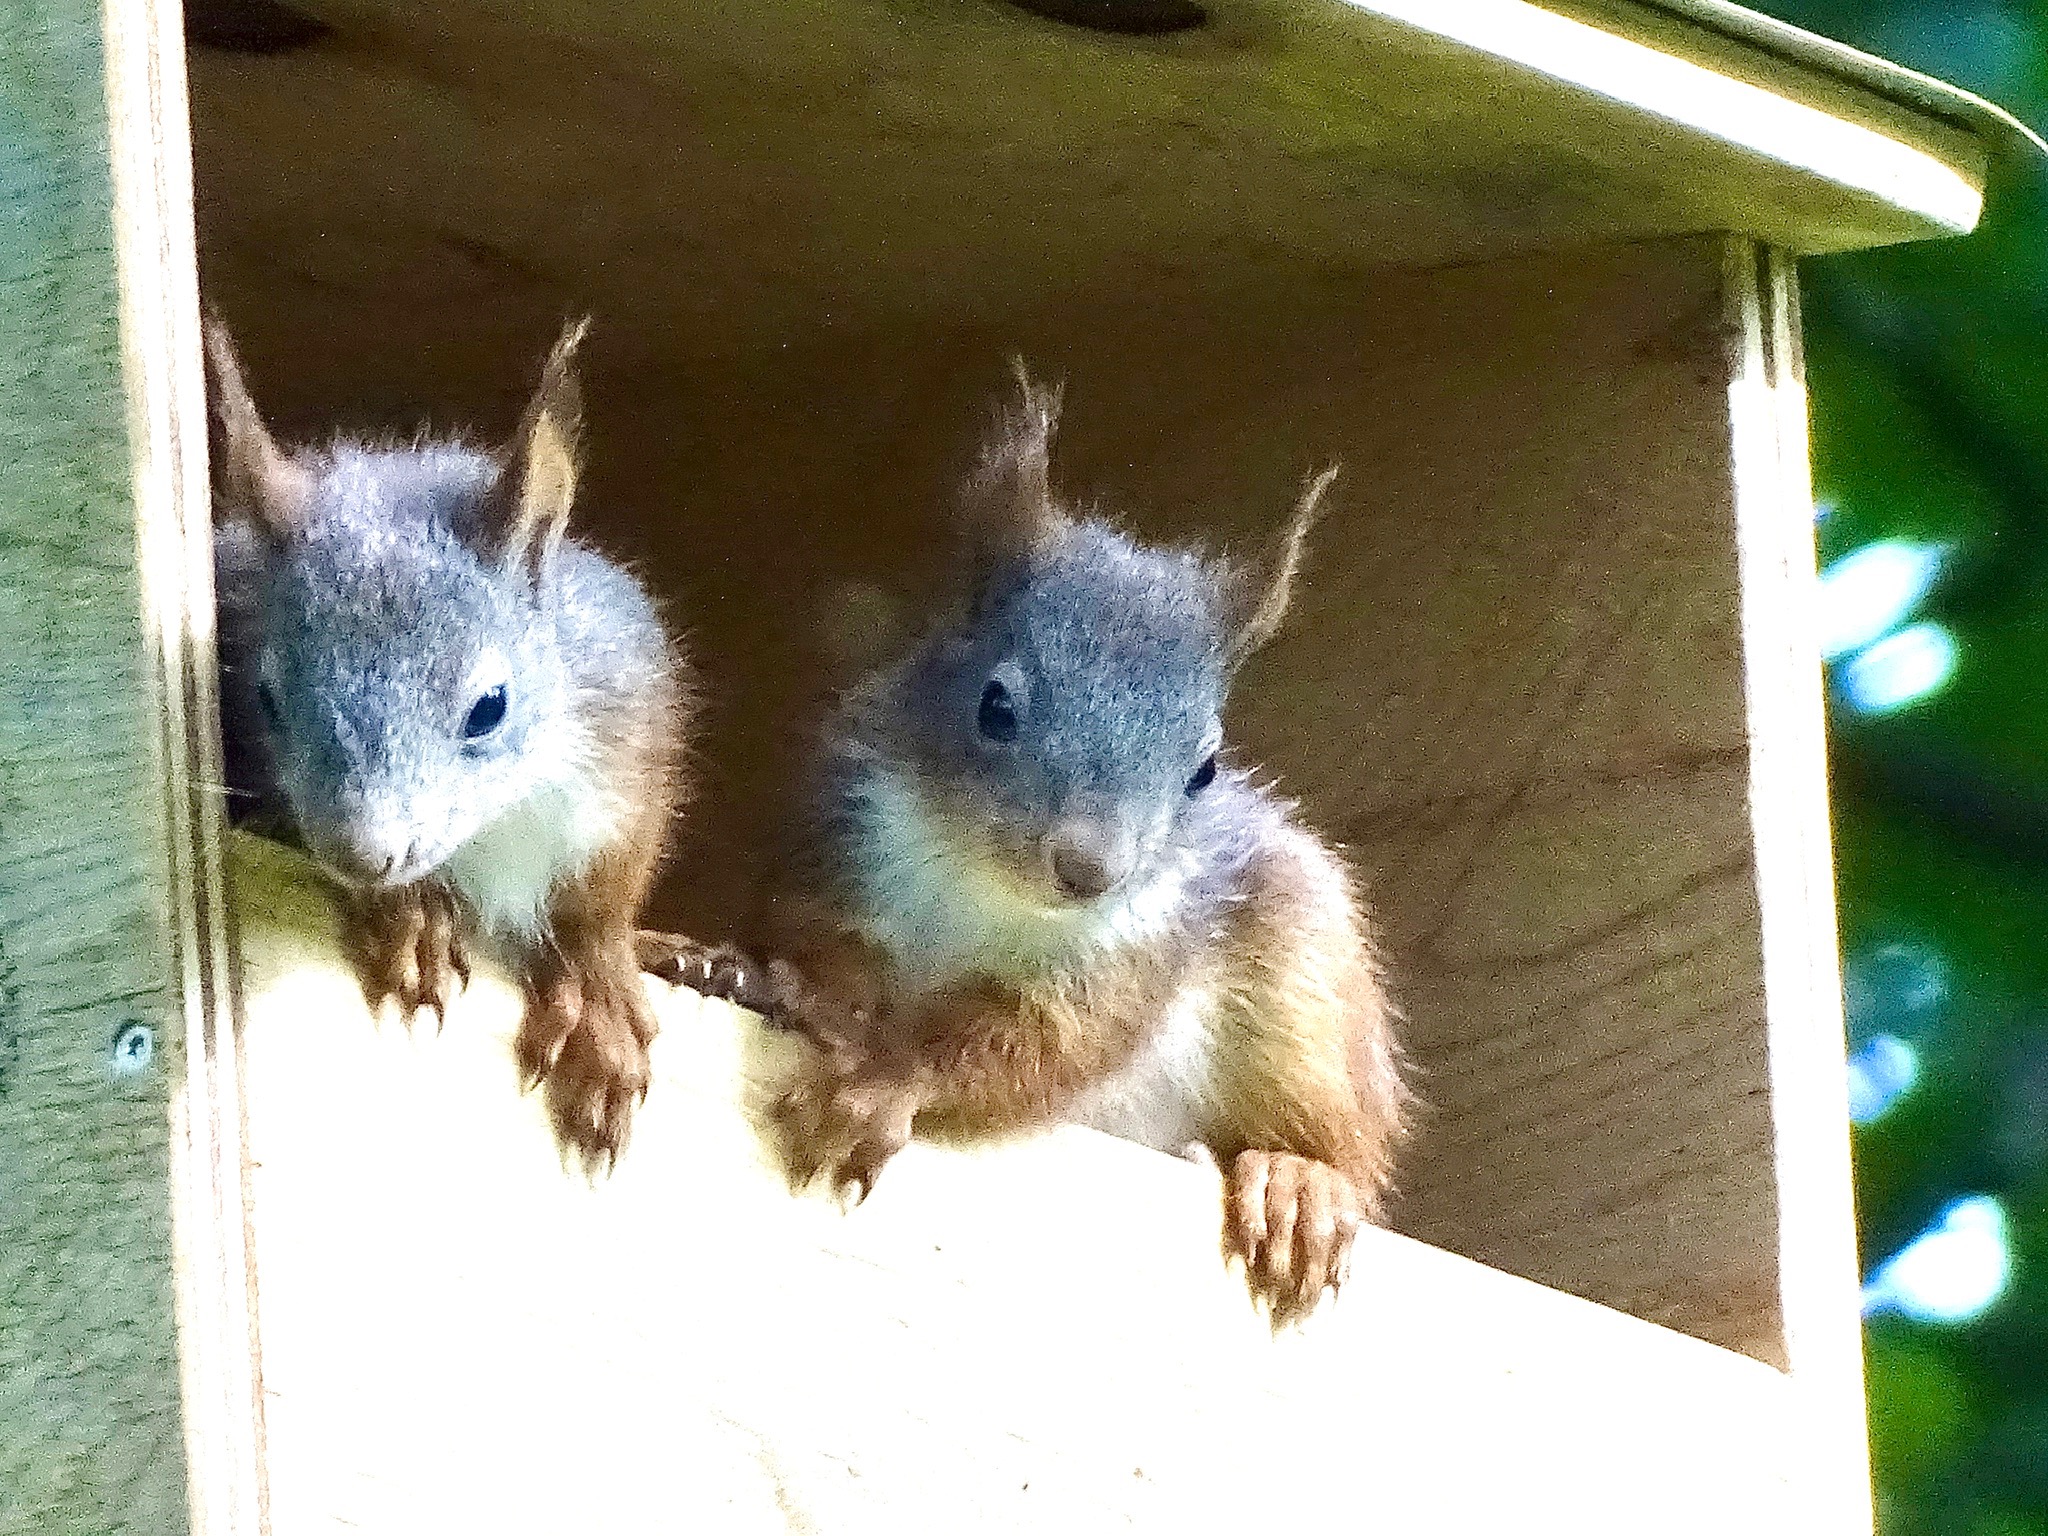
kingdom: Animalia
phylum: Chordata
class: Mammalia
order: Rodentia
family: Sciuridae
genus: Sciurus
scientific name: Sciurus vulgaris
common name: Egern
